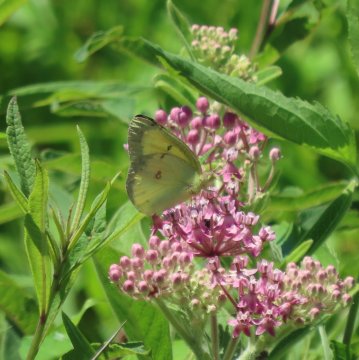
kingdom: Animalia
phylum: Arthropoda
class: Insecta
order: Lepidoptera
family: Pieridae
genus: Colias
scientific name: Colias eurytheme
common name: Orange Sulphur
